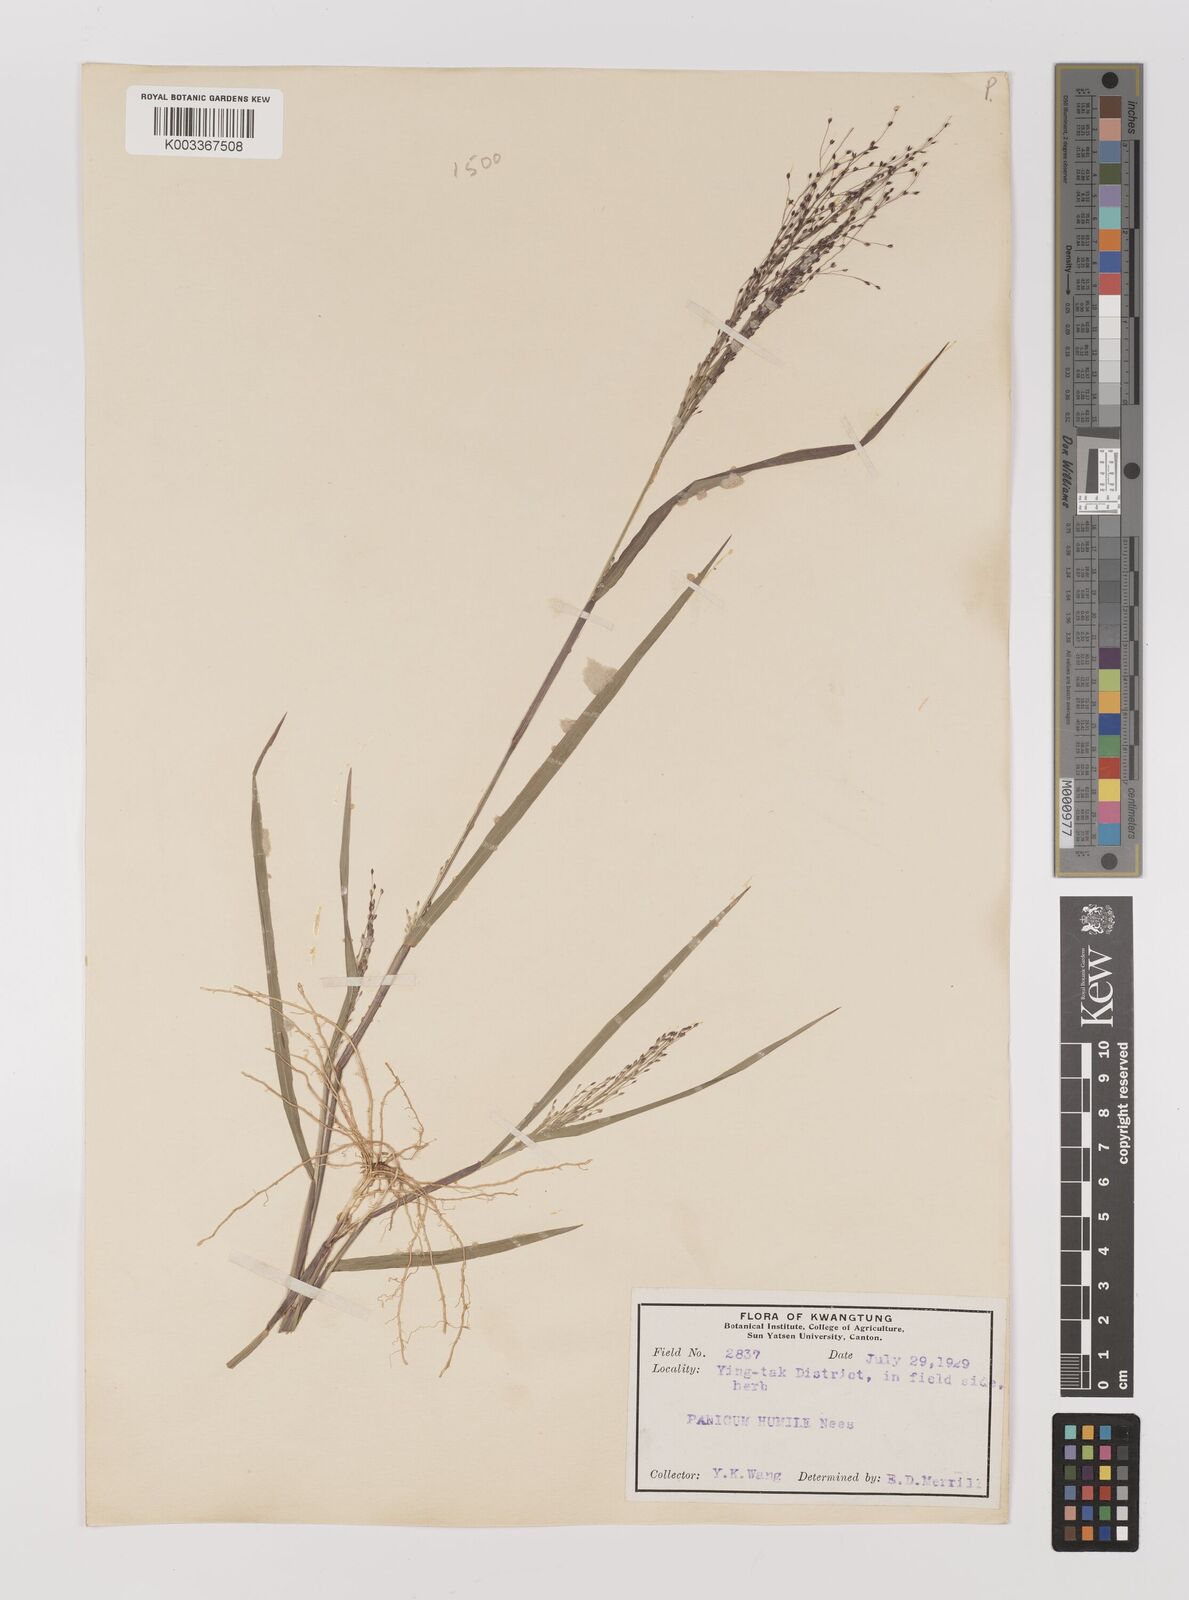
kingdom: Plantae
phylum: Tracheophyta
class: Liliopsida
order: Poales
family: Poaceae
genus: Panicum
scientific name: Panicum
